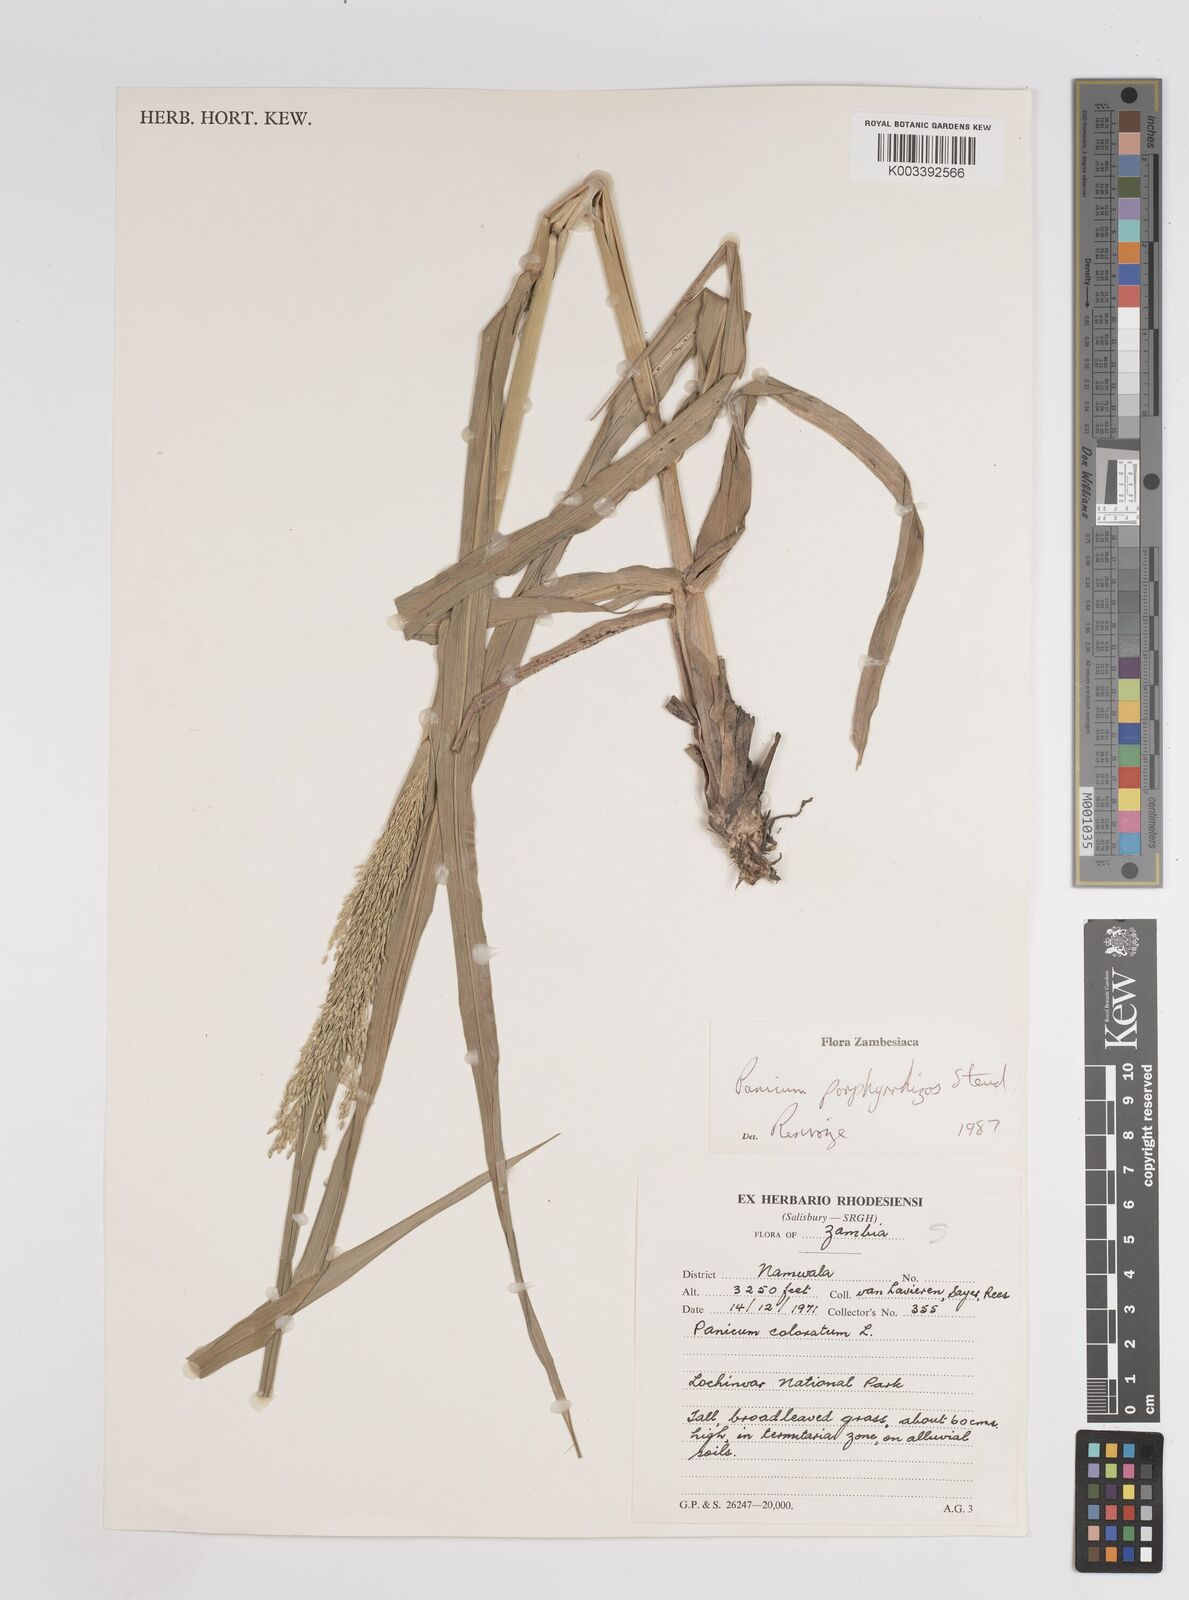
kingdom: Plantae
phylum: Tracheophyta
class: Liliopsida
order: Poales
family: Poaceae
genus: Panicum
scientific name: Panicum porphyrrhizos
